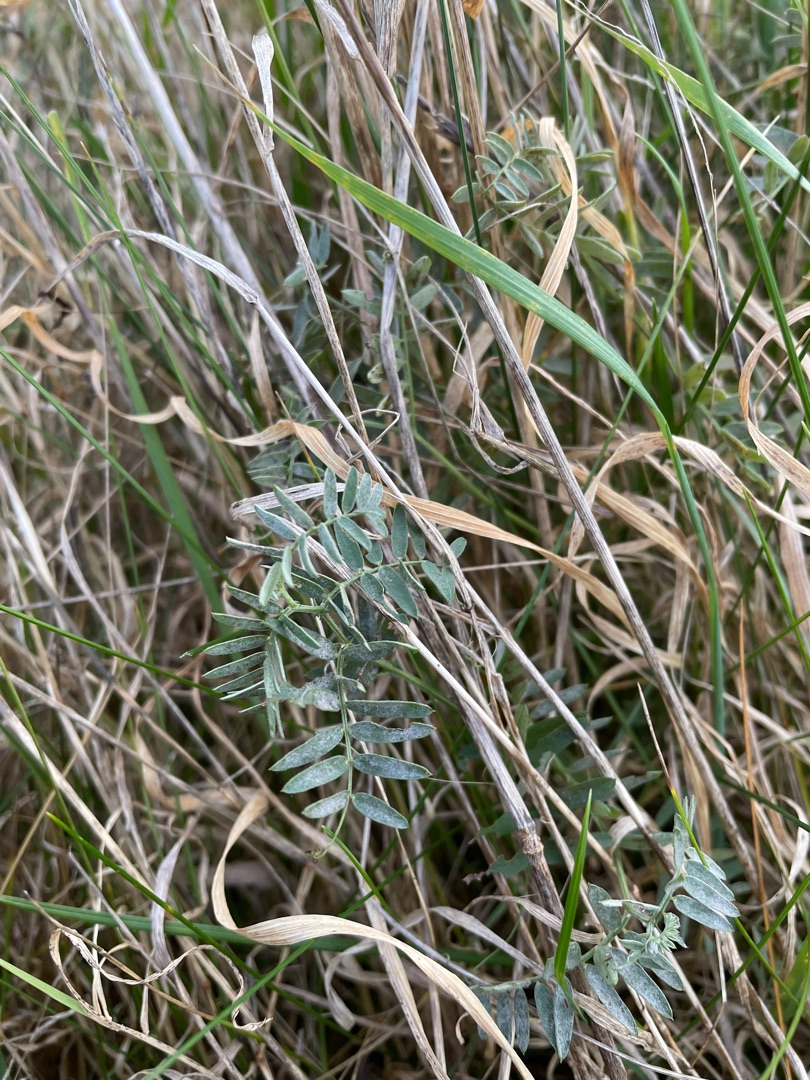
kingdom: Plantae
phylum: Tracheophyta
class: Magnoliopsida
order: Fabales
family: Fabaceae
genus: Vicia
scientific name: Vicia cracca
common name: Muse-vikke
